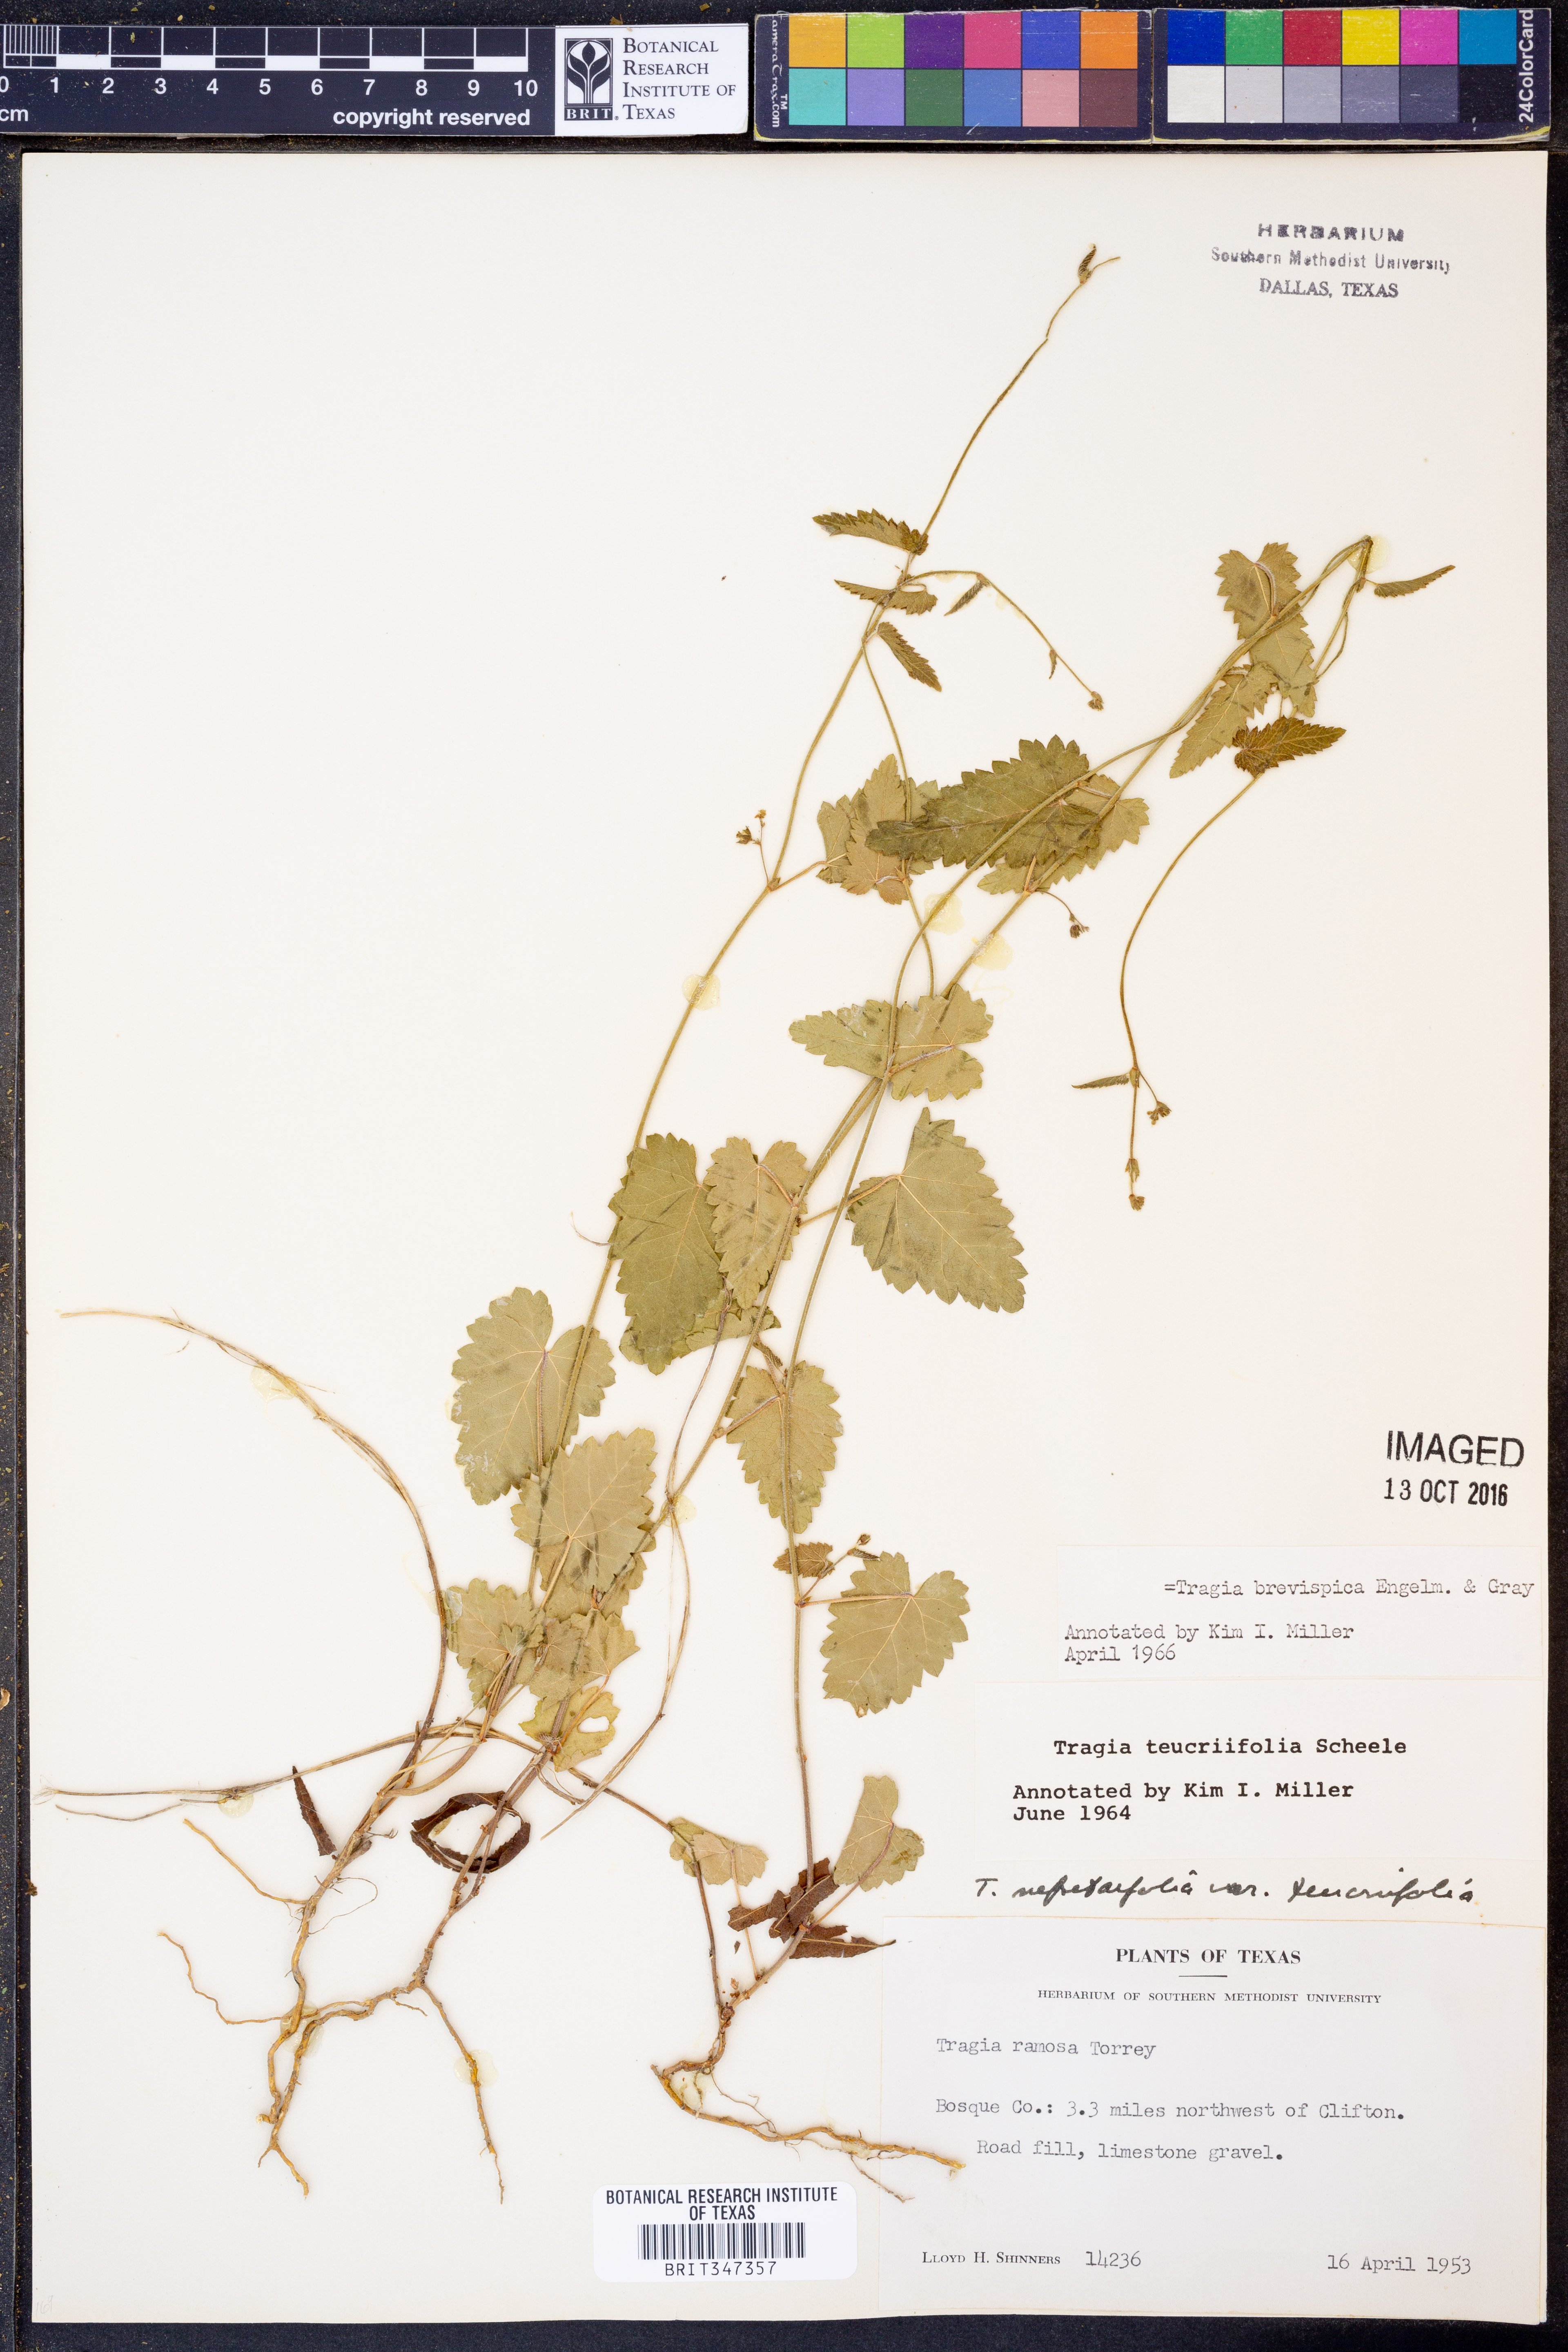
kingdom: Plantae
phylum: Tracheophyta
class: Magnoliopsida
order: Malpighiales
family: Euphorbiaceae
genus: Tragia
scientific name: Tragia brevispica
